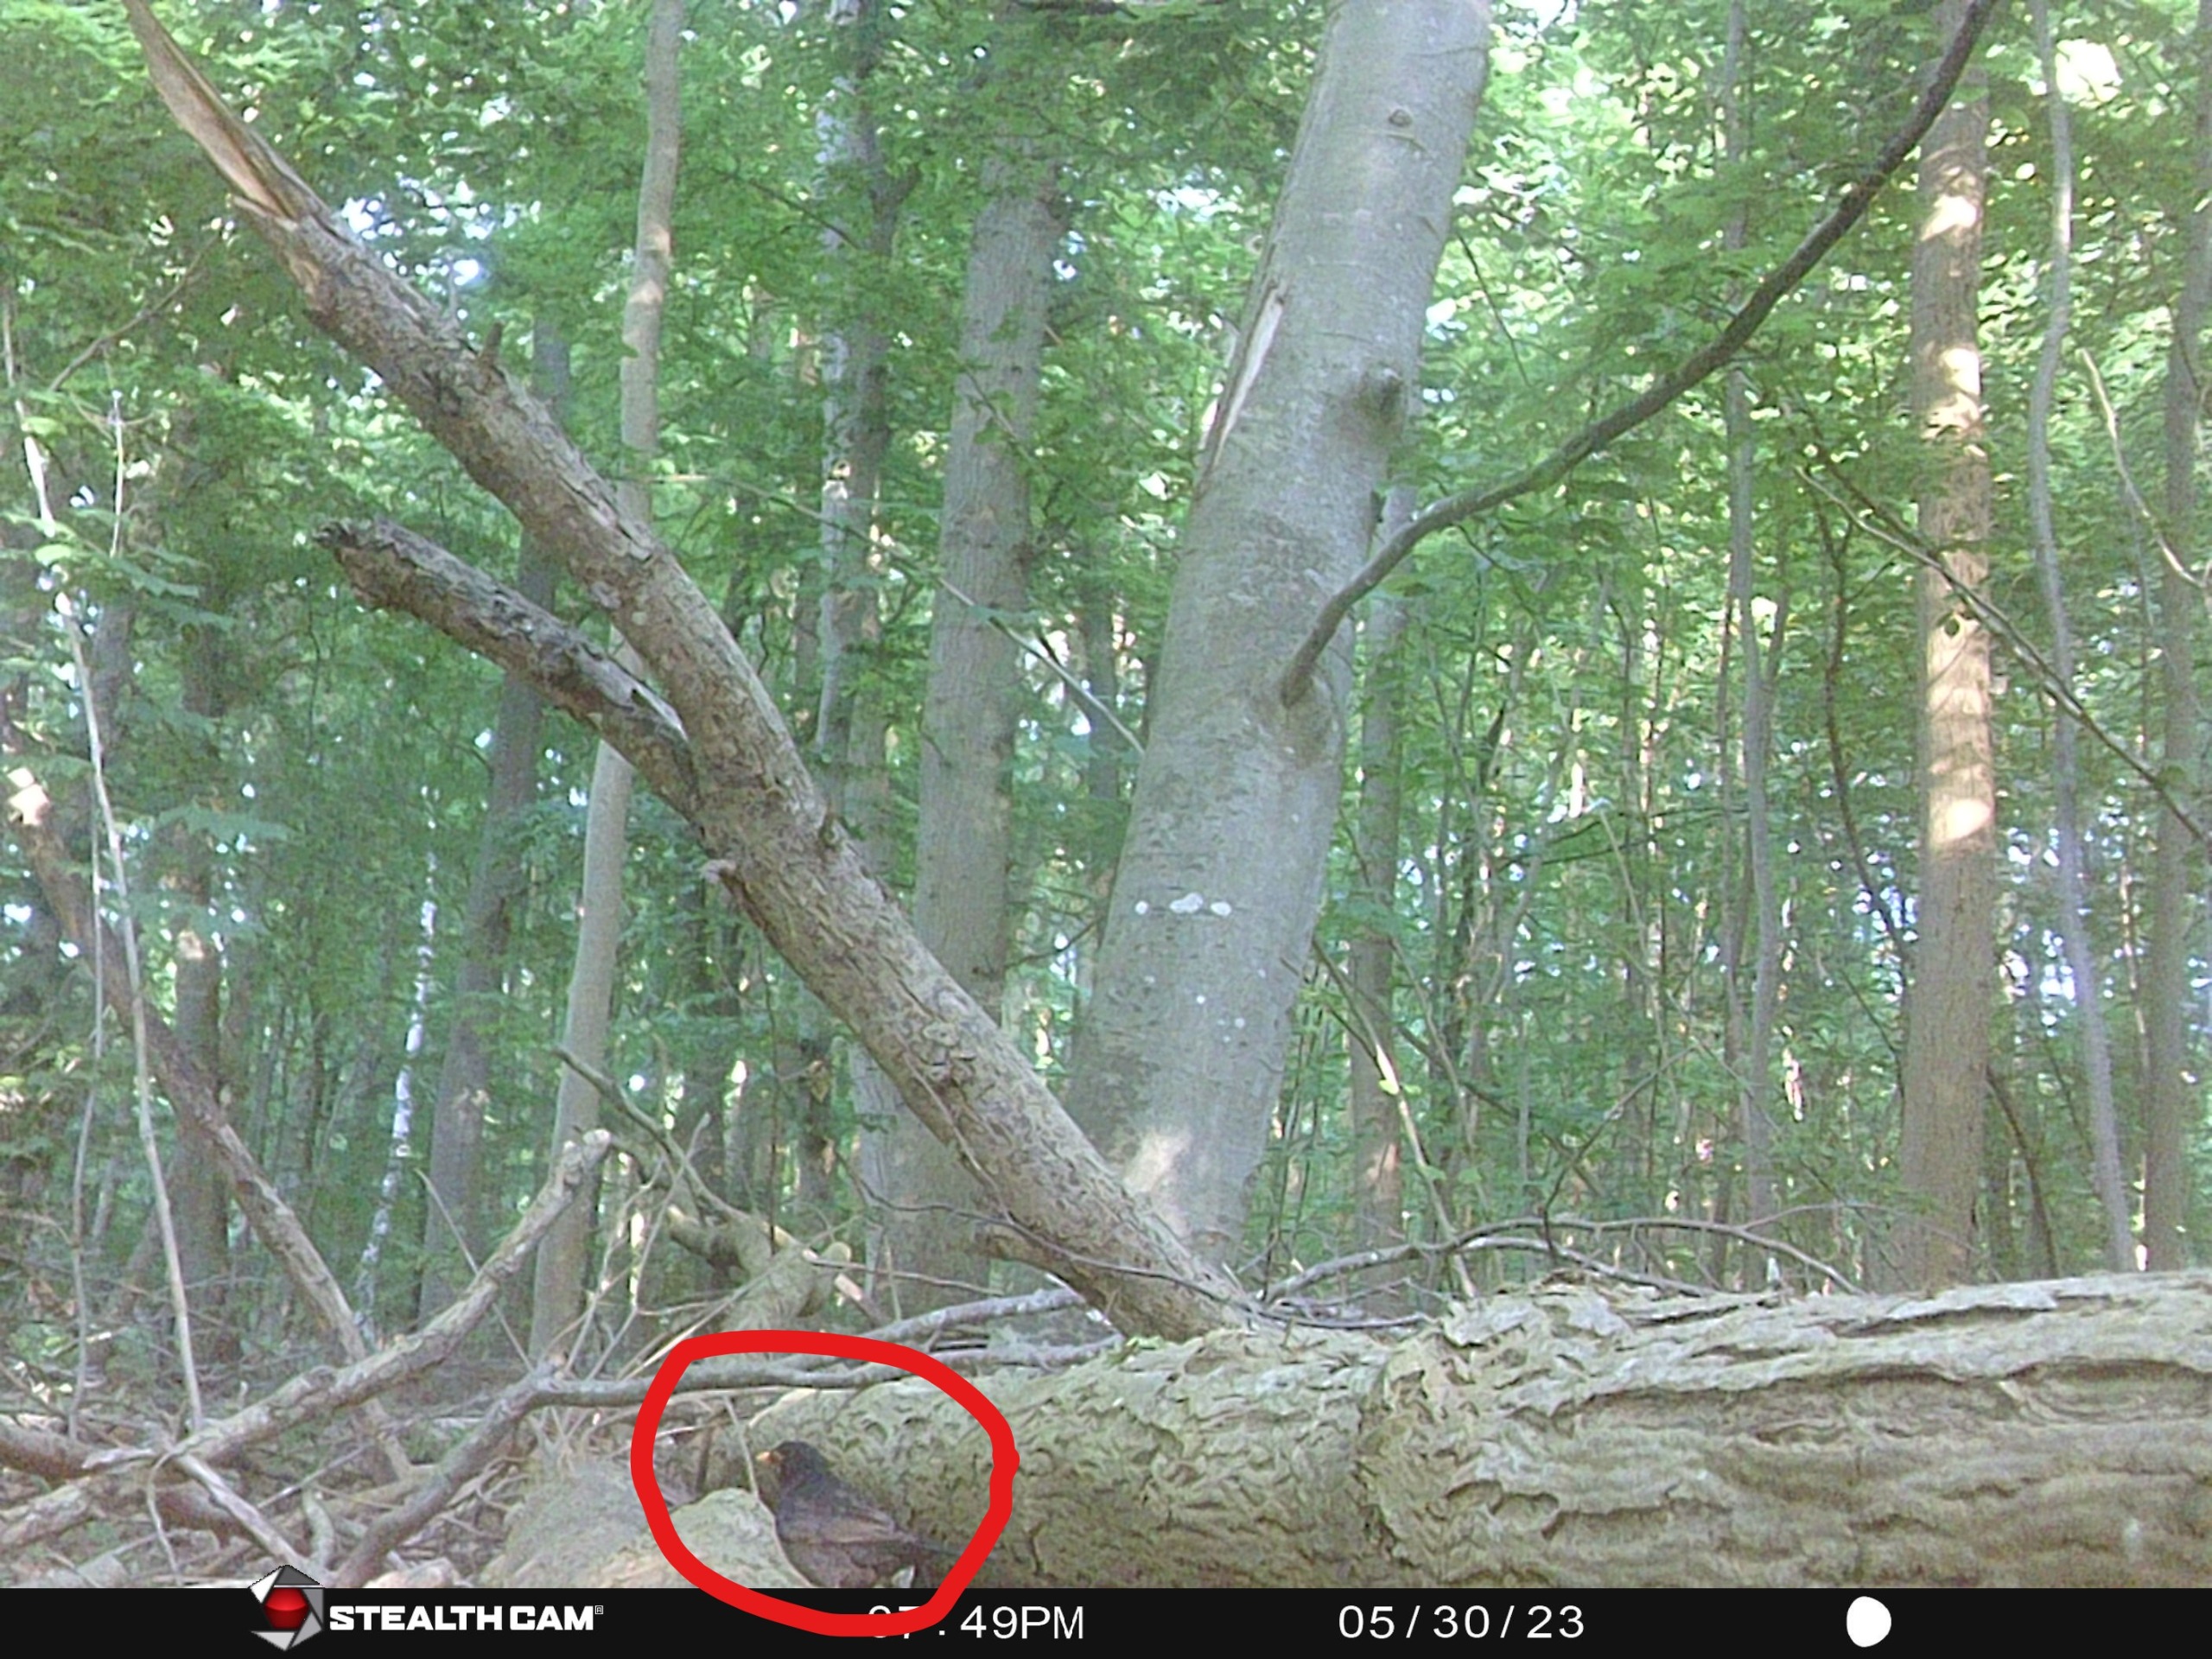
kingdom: Animalia
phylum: Chordata
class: Aves
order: Passeriformes
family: Turdidae
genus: Turdus
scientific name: Turdus merula
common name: Solsort
